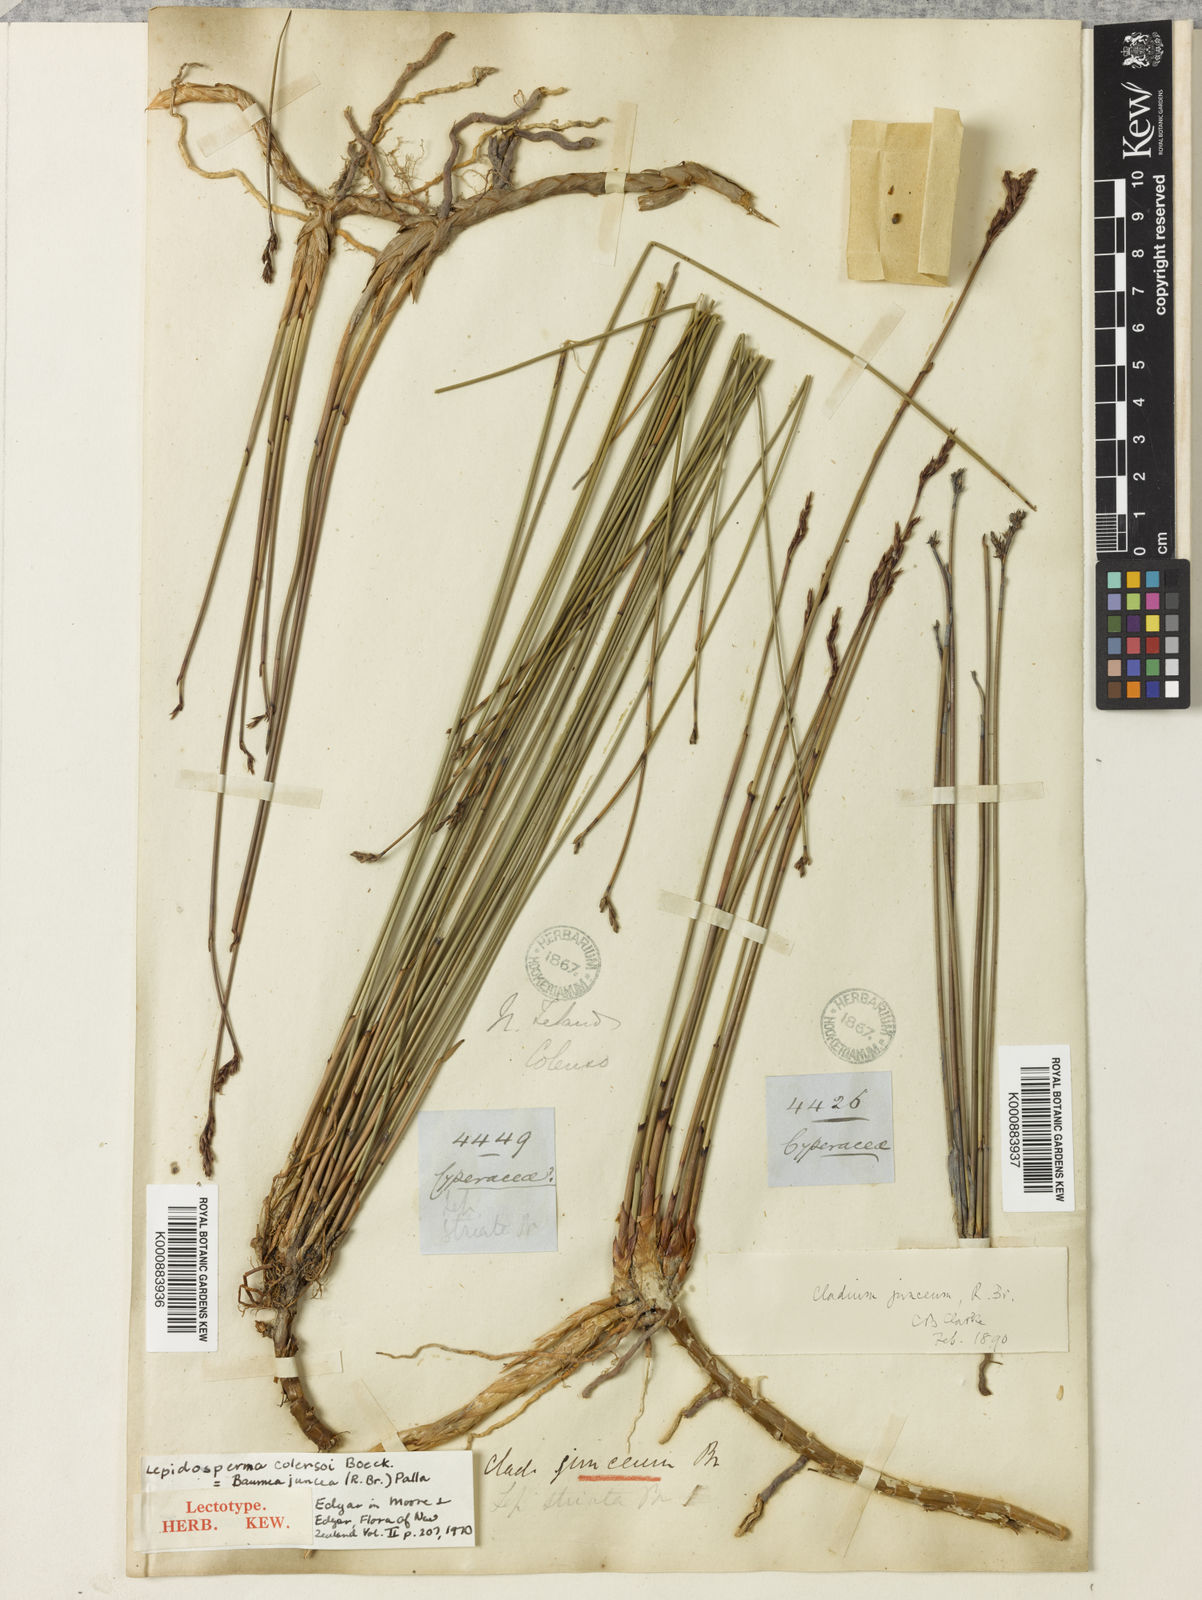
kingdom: Plantae
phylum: Tracheophyta
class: Liliopsida
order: Poales
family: Cyperaceae
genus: Machaerina
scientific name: Machaerina juncea
